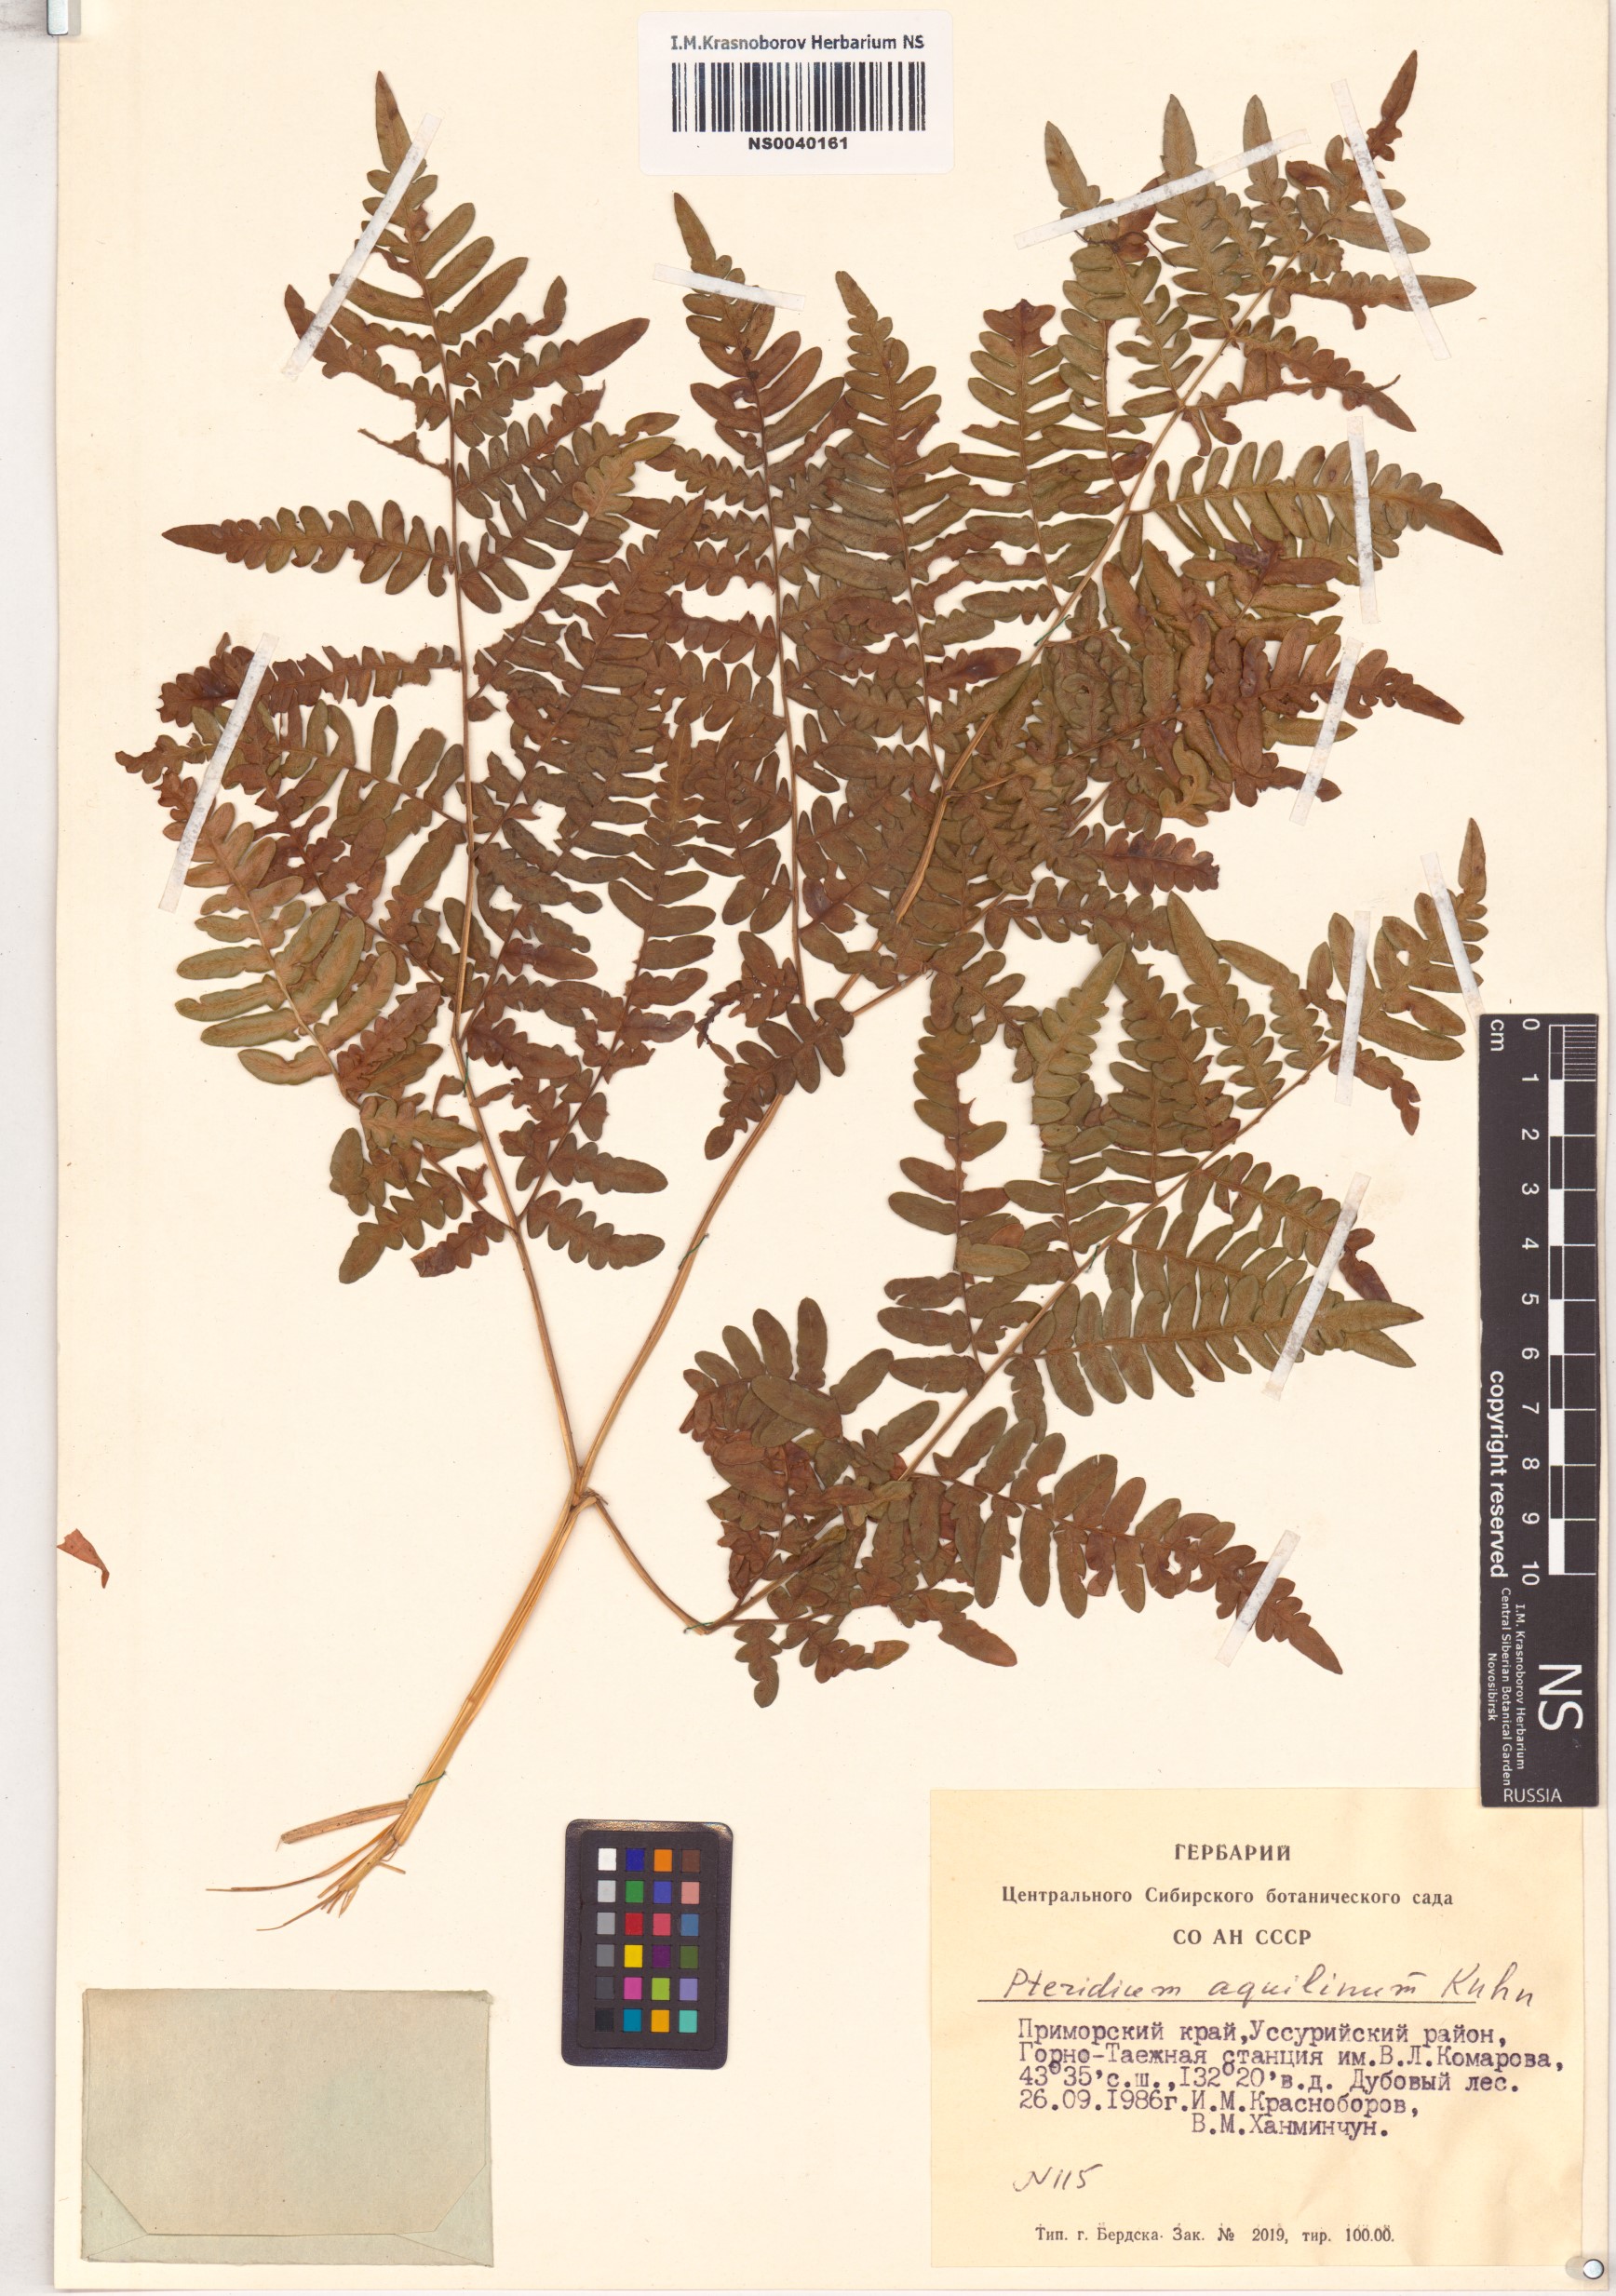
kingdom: Plantae
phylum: Tracheophyta
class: Polypodiopsida
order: Polypodiales
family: Dennstaedtiaceae
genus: Pteridium
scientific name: Pteridium aquilinum
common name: Bracken
